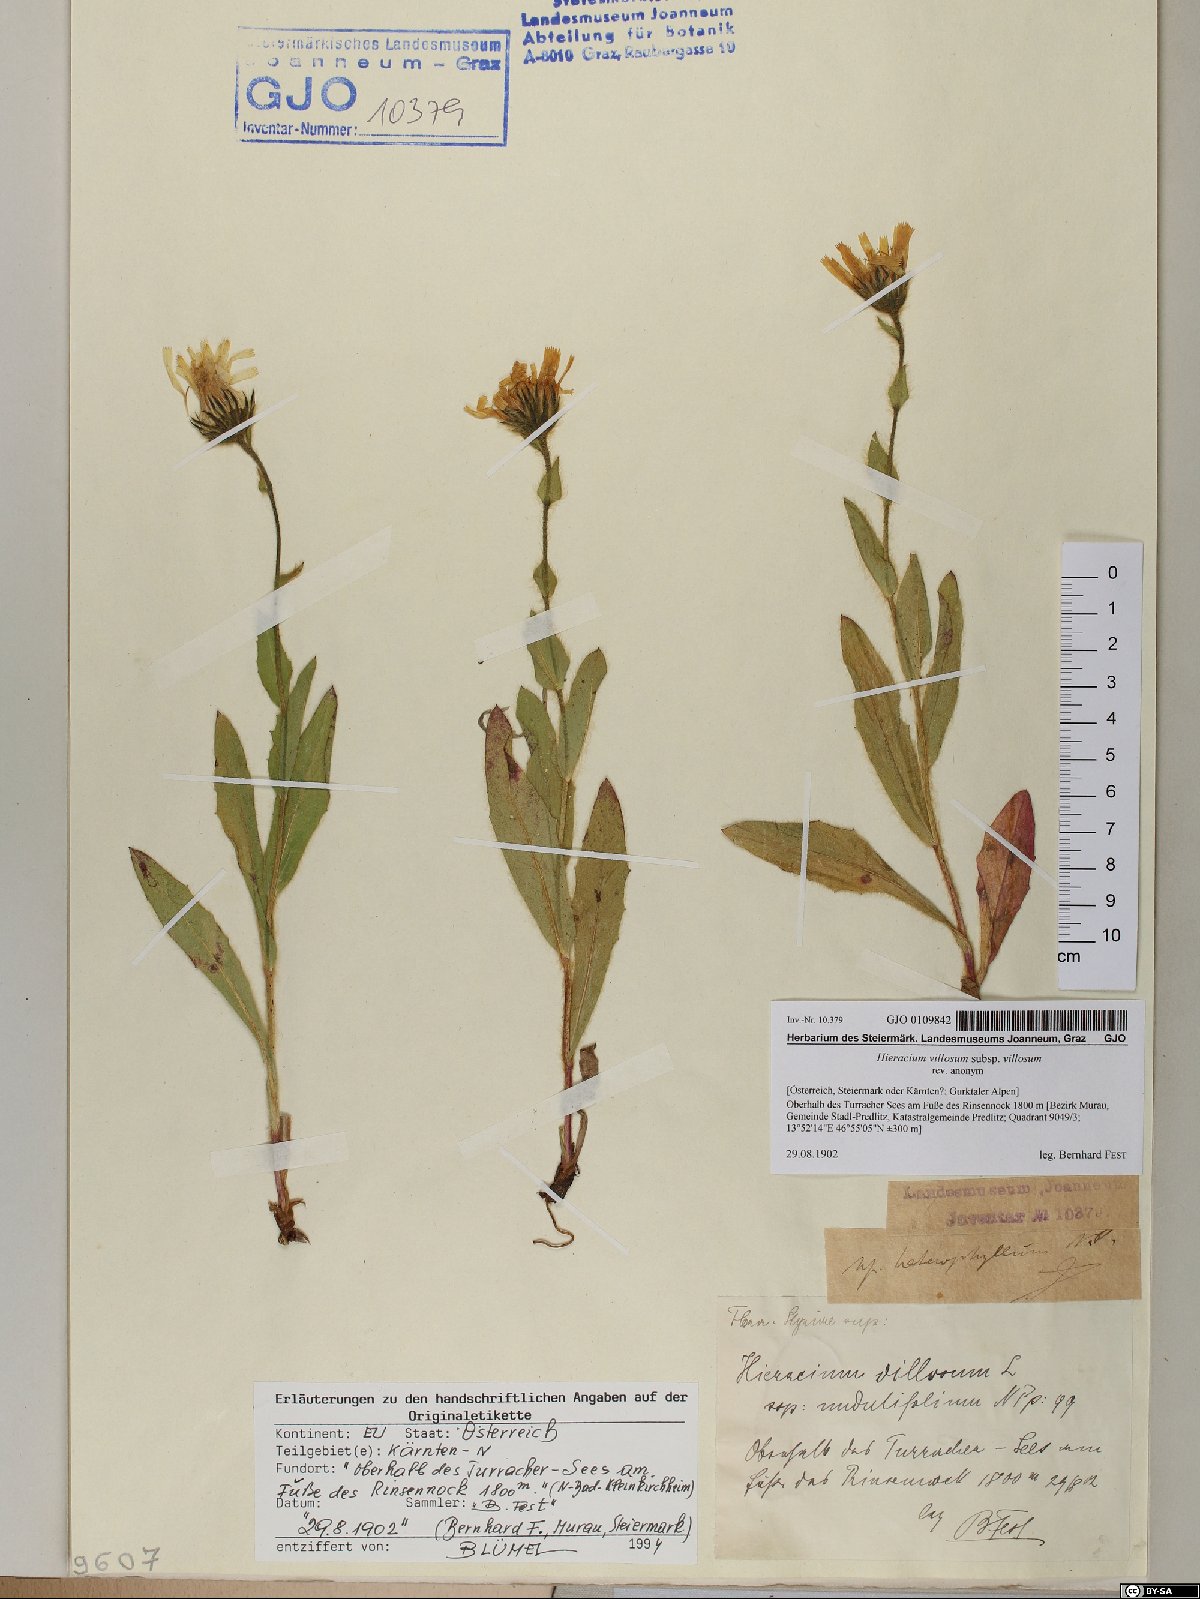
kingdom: Plantae
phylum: Tracheophyta
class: Magnoliopsida
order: Asterales
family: Asteraceae
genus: Hieracium
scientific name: Hieracium villosum
